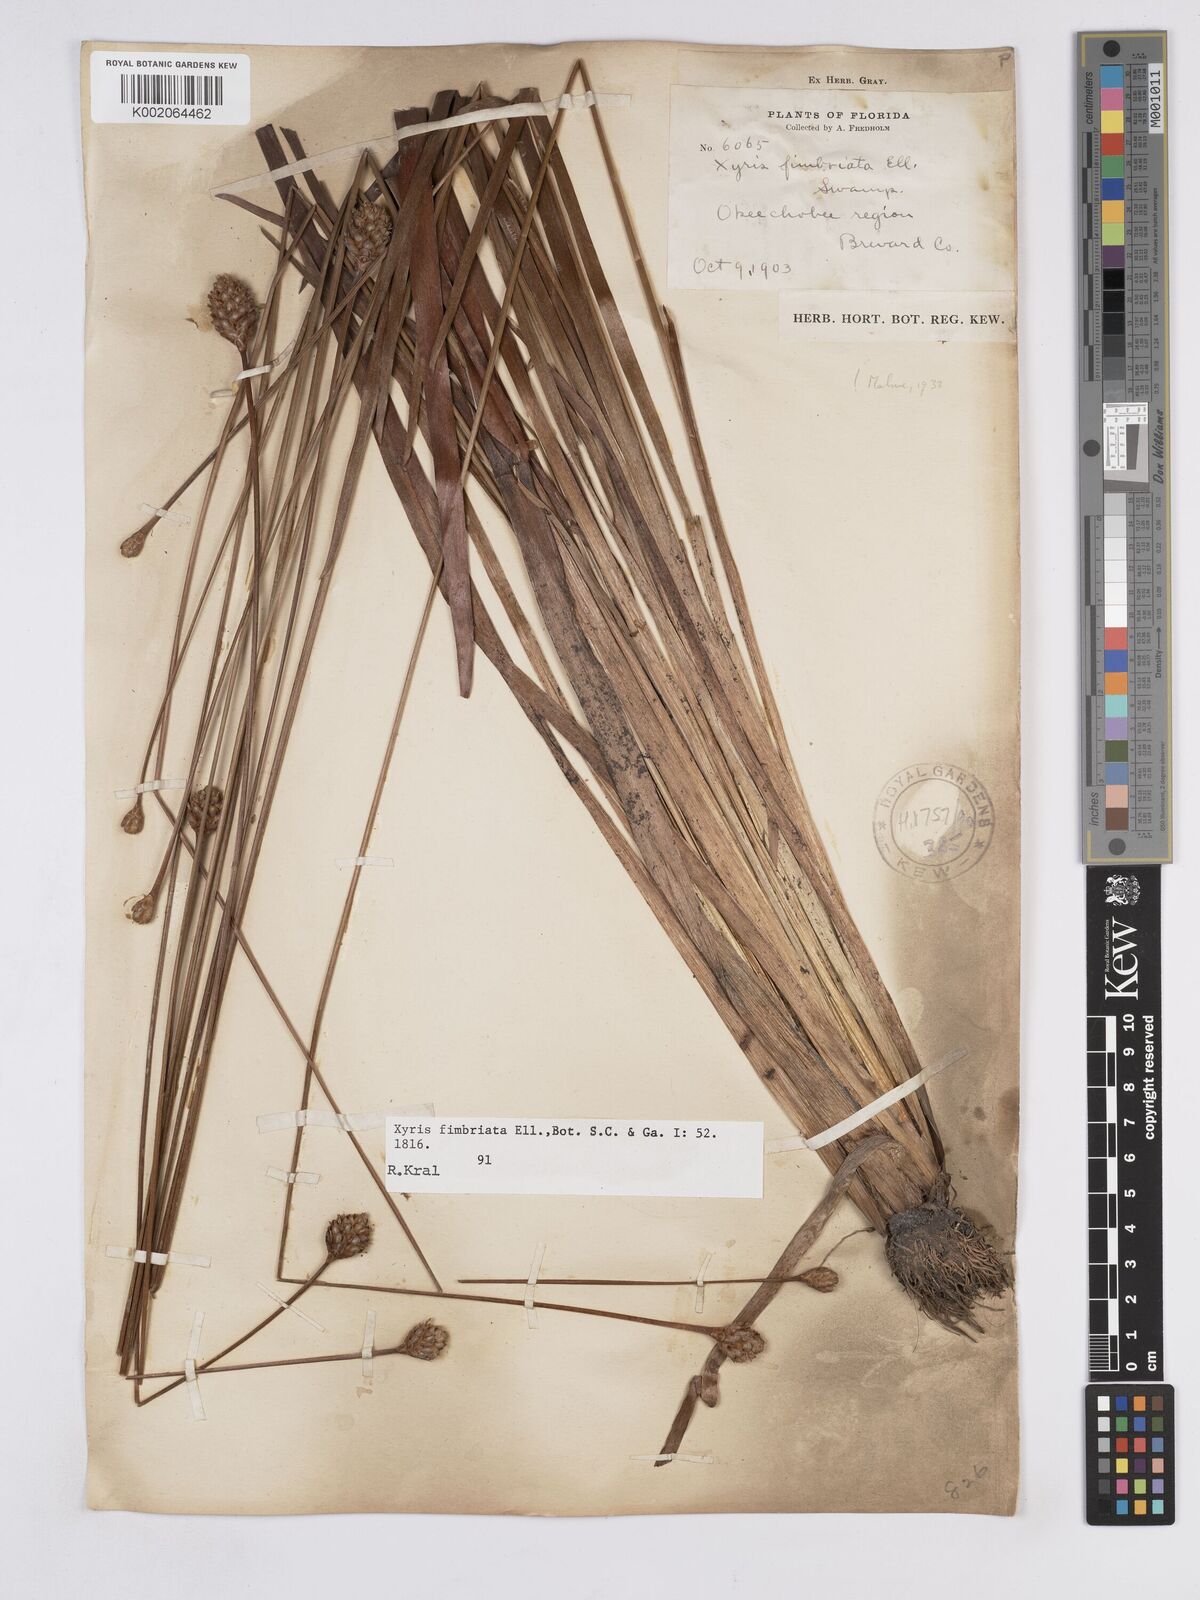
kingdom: Plantae
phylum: Tracheophyta
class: Liliopsida
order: Poales
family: Xyridaceae
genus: Xyris
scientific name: Xyris fimbriata
